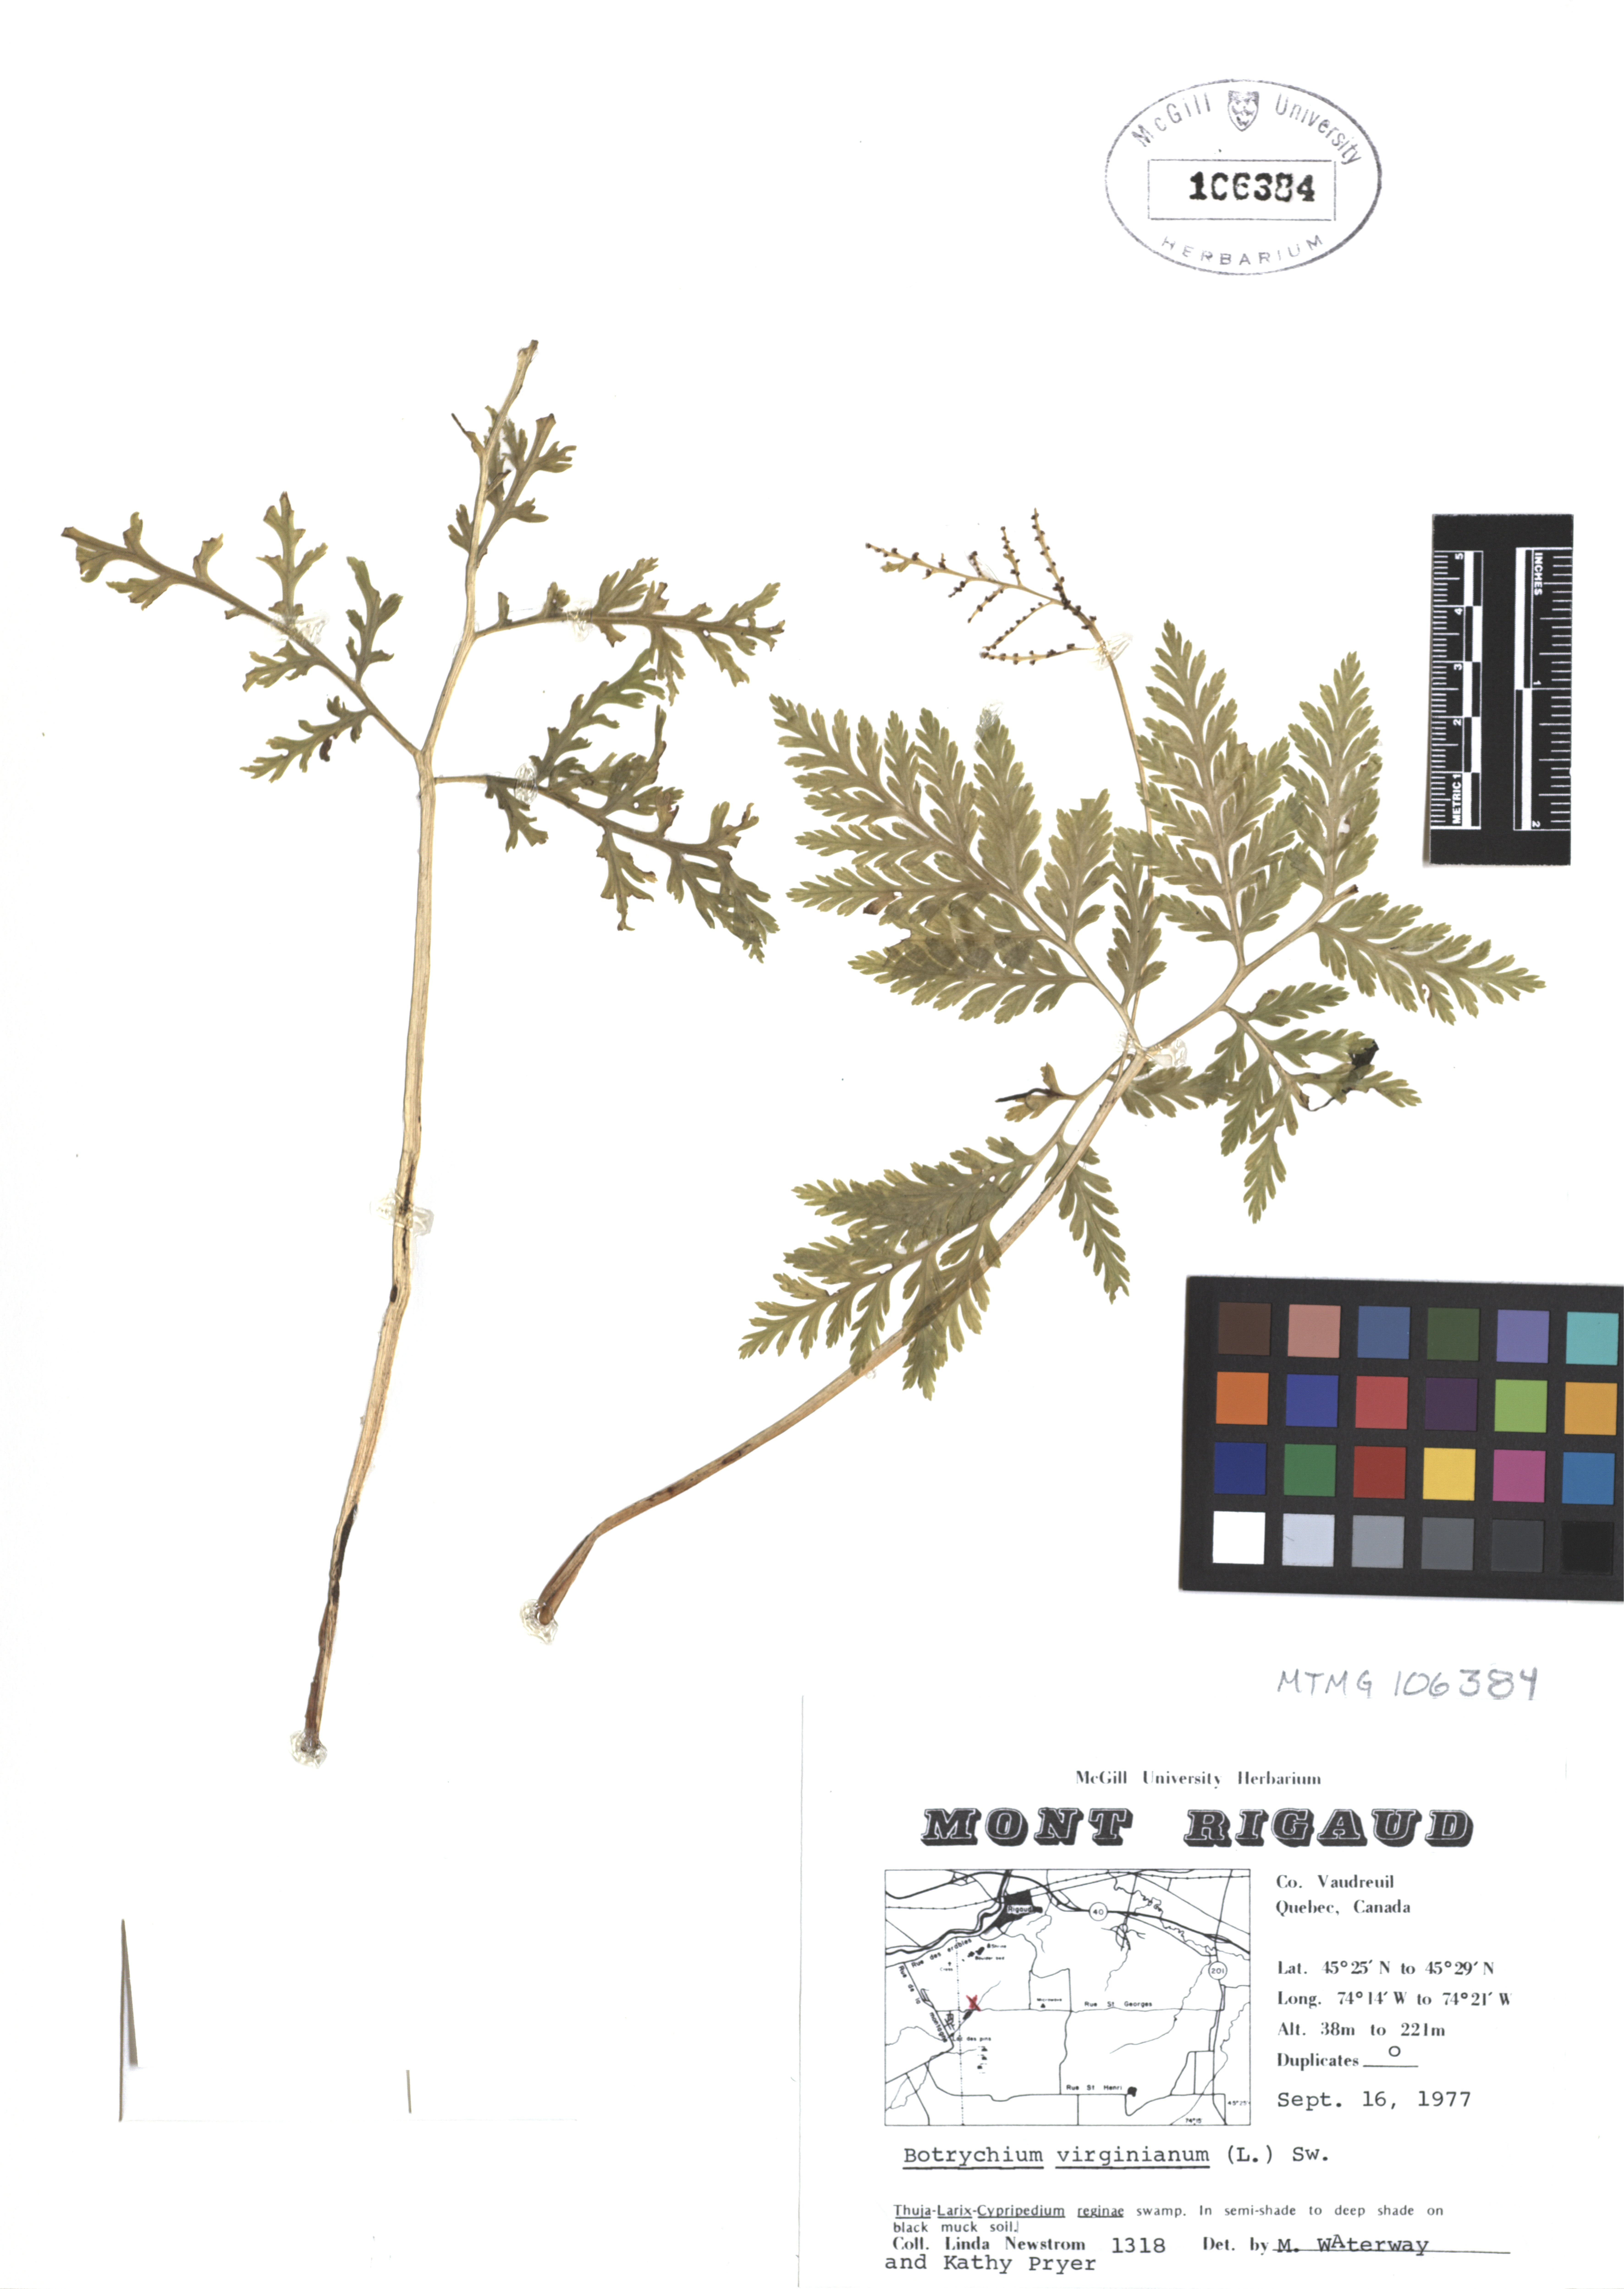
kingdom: Plantae
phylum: Tracheophyta
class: Polypodiopsida
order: Ophioglossales
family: Ophioglossaceae
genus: Botrypus
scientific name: Botrypus virginianus
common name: Common grapefern
